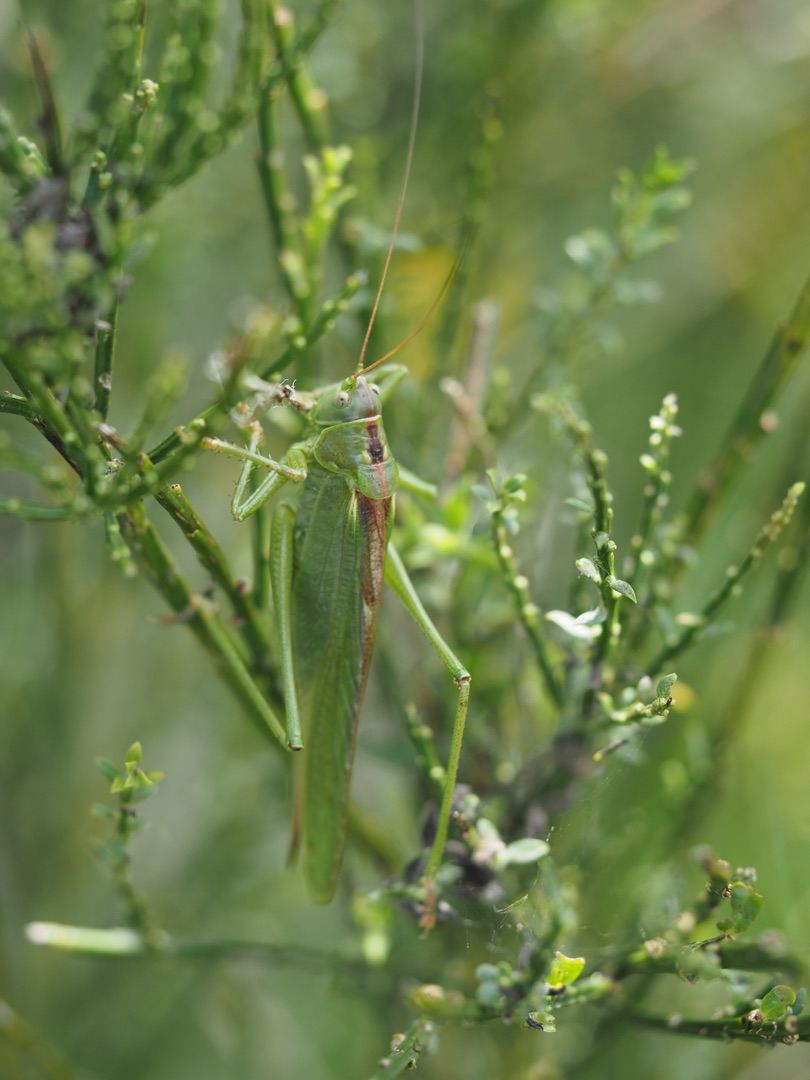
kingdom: Animalia
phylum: Arthropoda
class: Insecta
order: Orthoptera
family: Tettigoniidae
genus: Tettigonia
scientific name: Tettigonia viridissima
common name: Stor grøn løvgræshoppe
